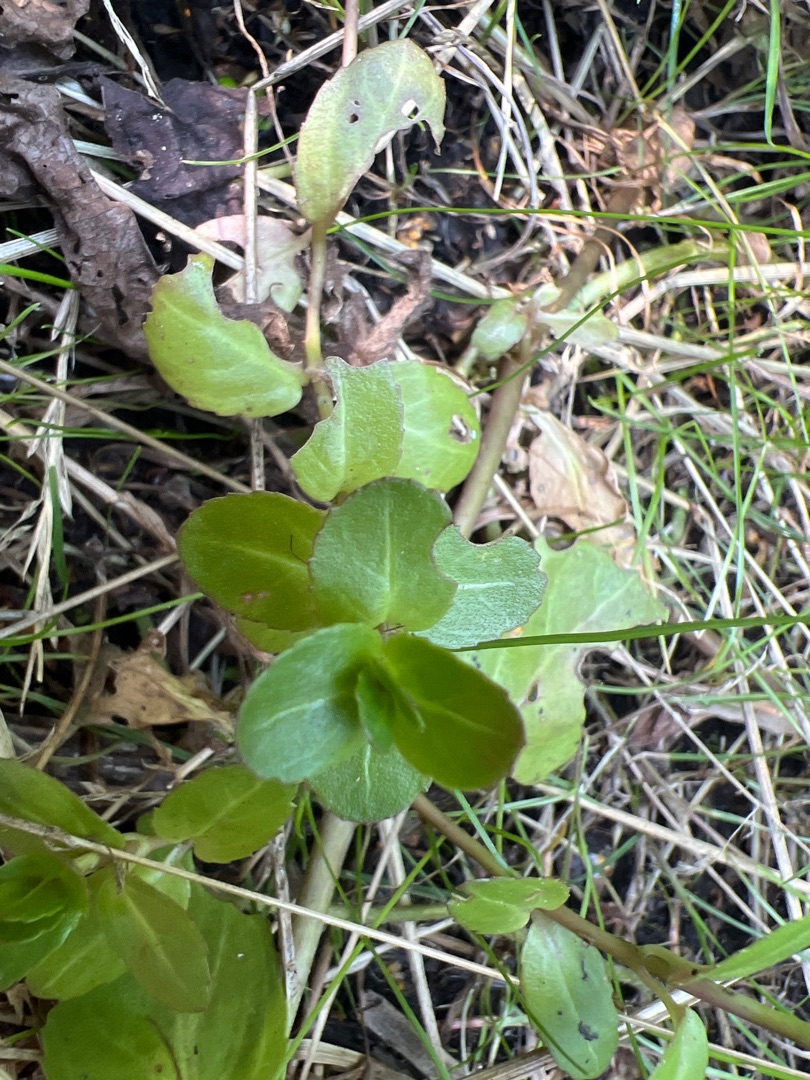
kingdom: Plantae
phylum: Tracheophyta
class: Magnoliopsida
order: Lamiales
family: Plantaginaceae
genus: Veronica
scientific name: Veronica beccabunga
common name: Tykbladet ærenpris
